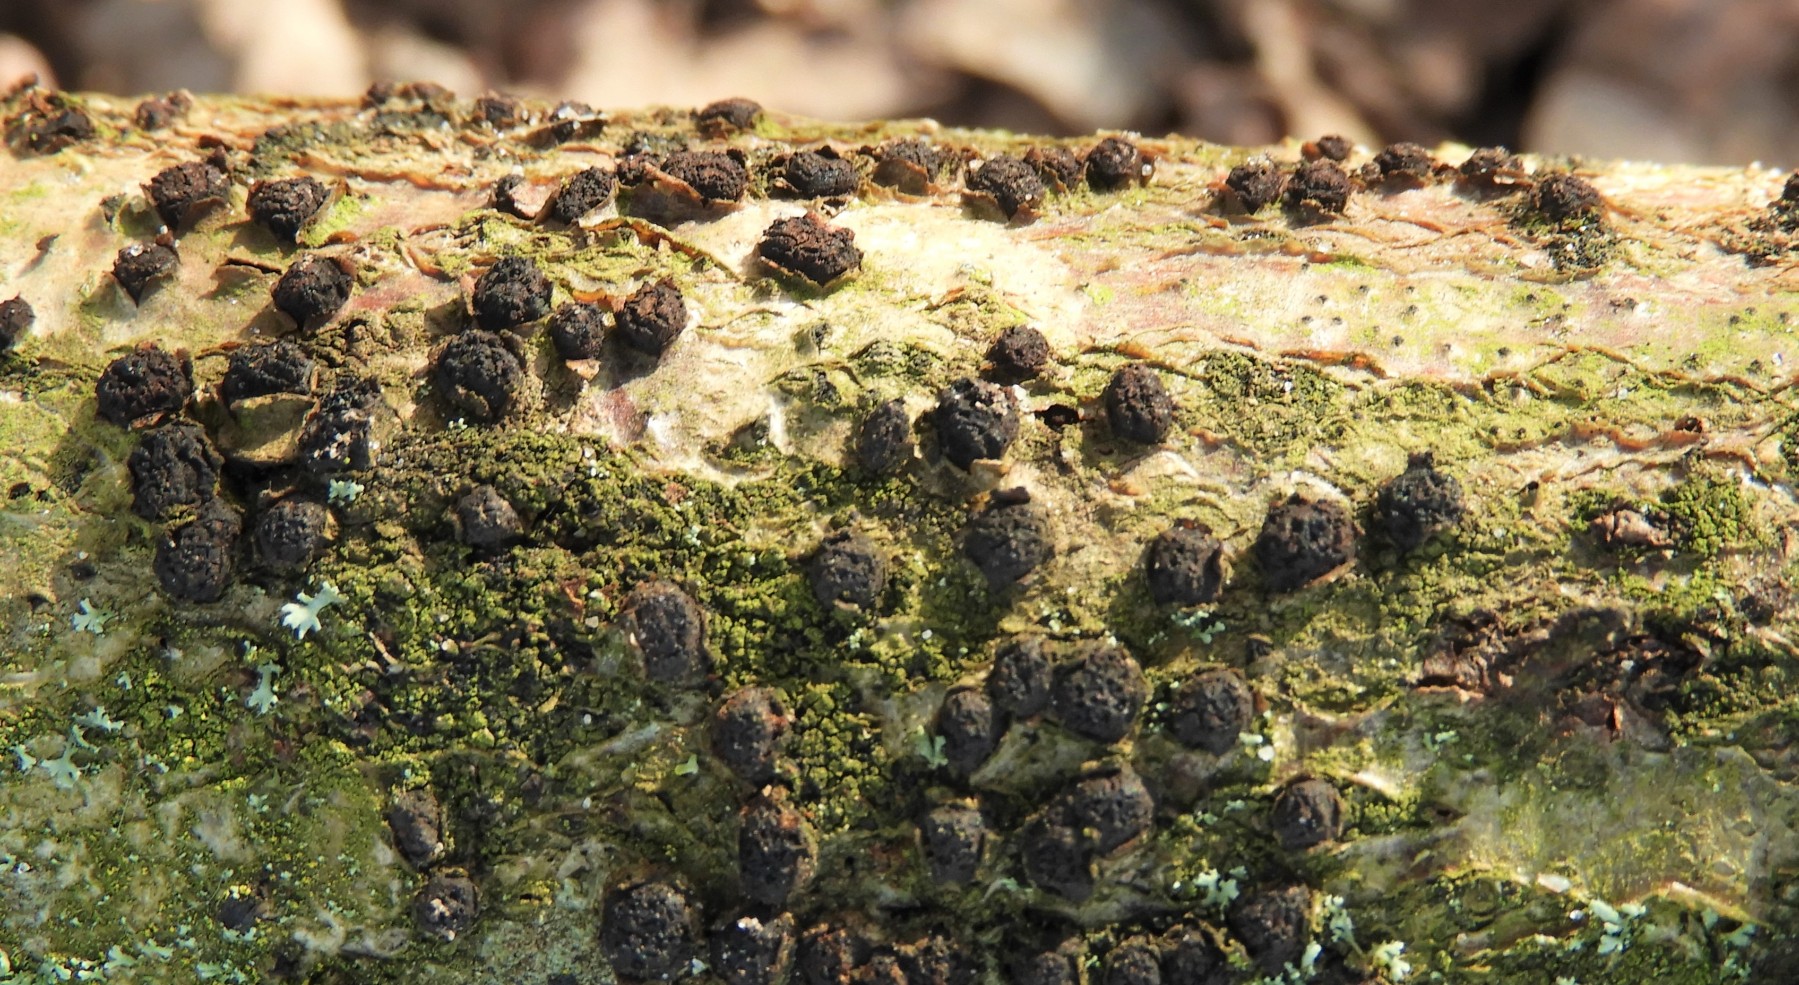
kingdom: Fungi
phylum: Ascomycota
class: Sordariomycetes
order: Xylariales
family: Diatrypaceae
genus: Diatrypella
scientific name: Diatrypella quercina
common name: ege-kulskorpe
